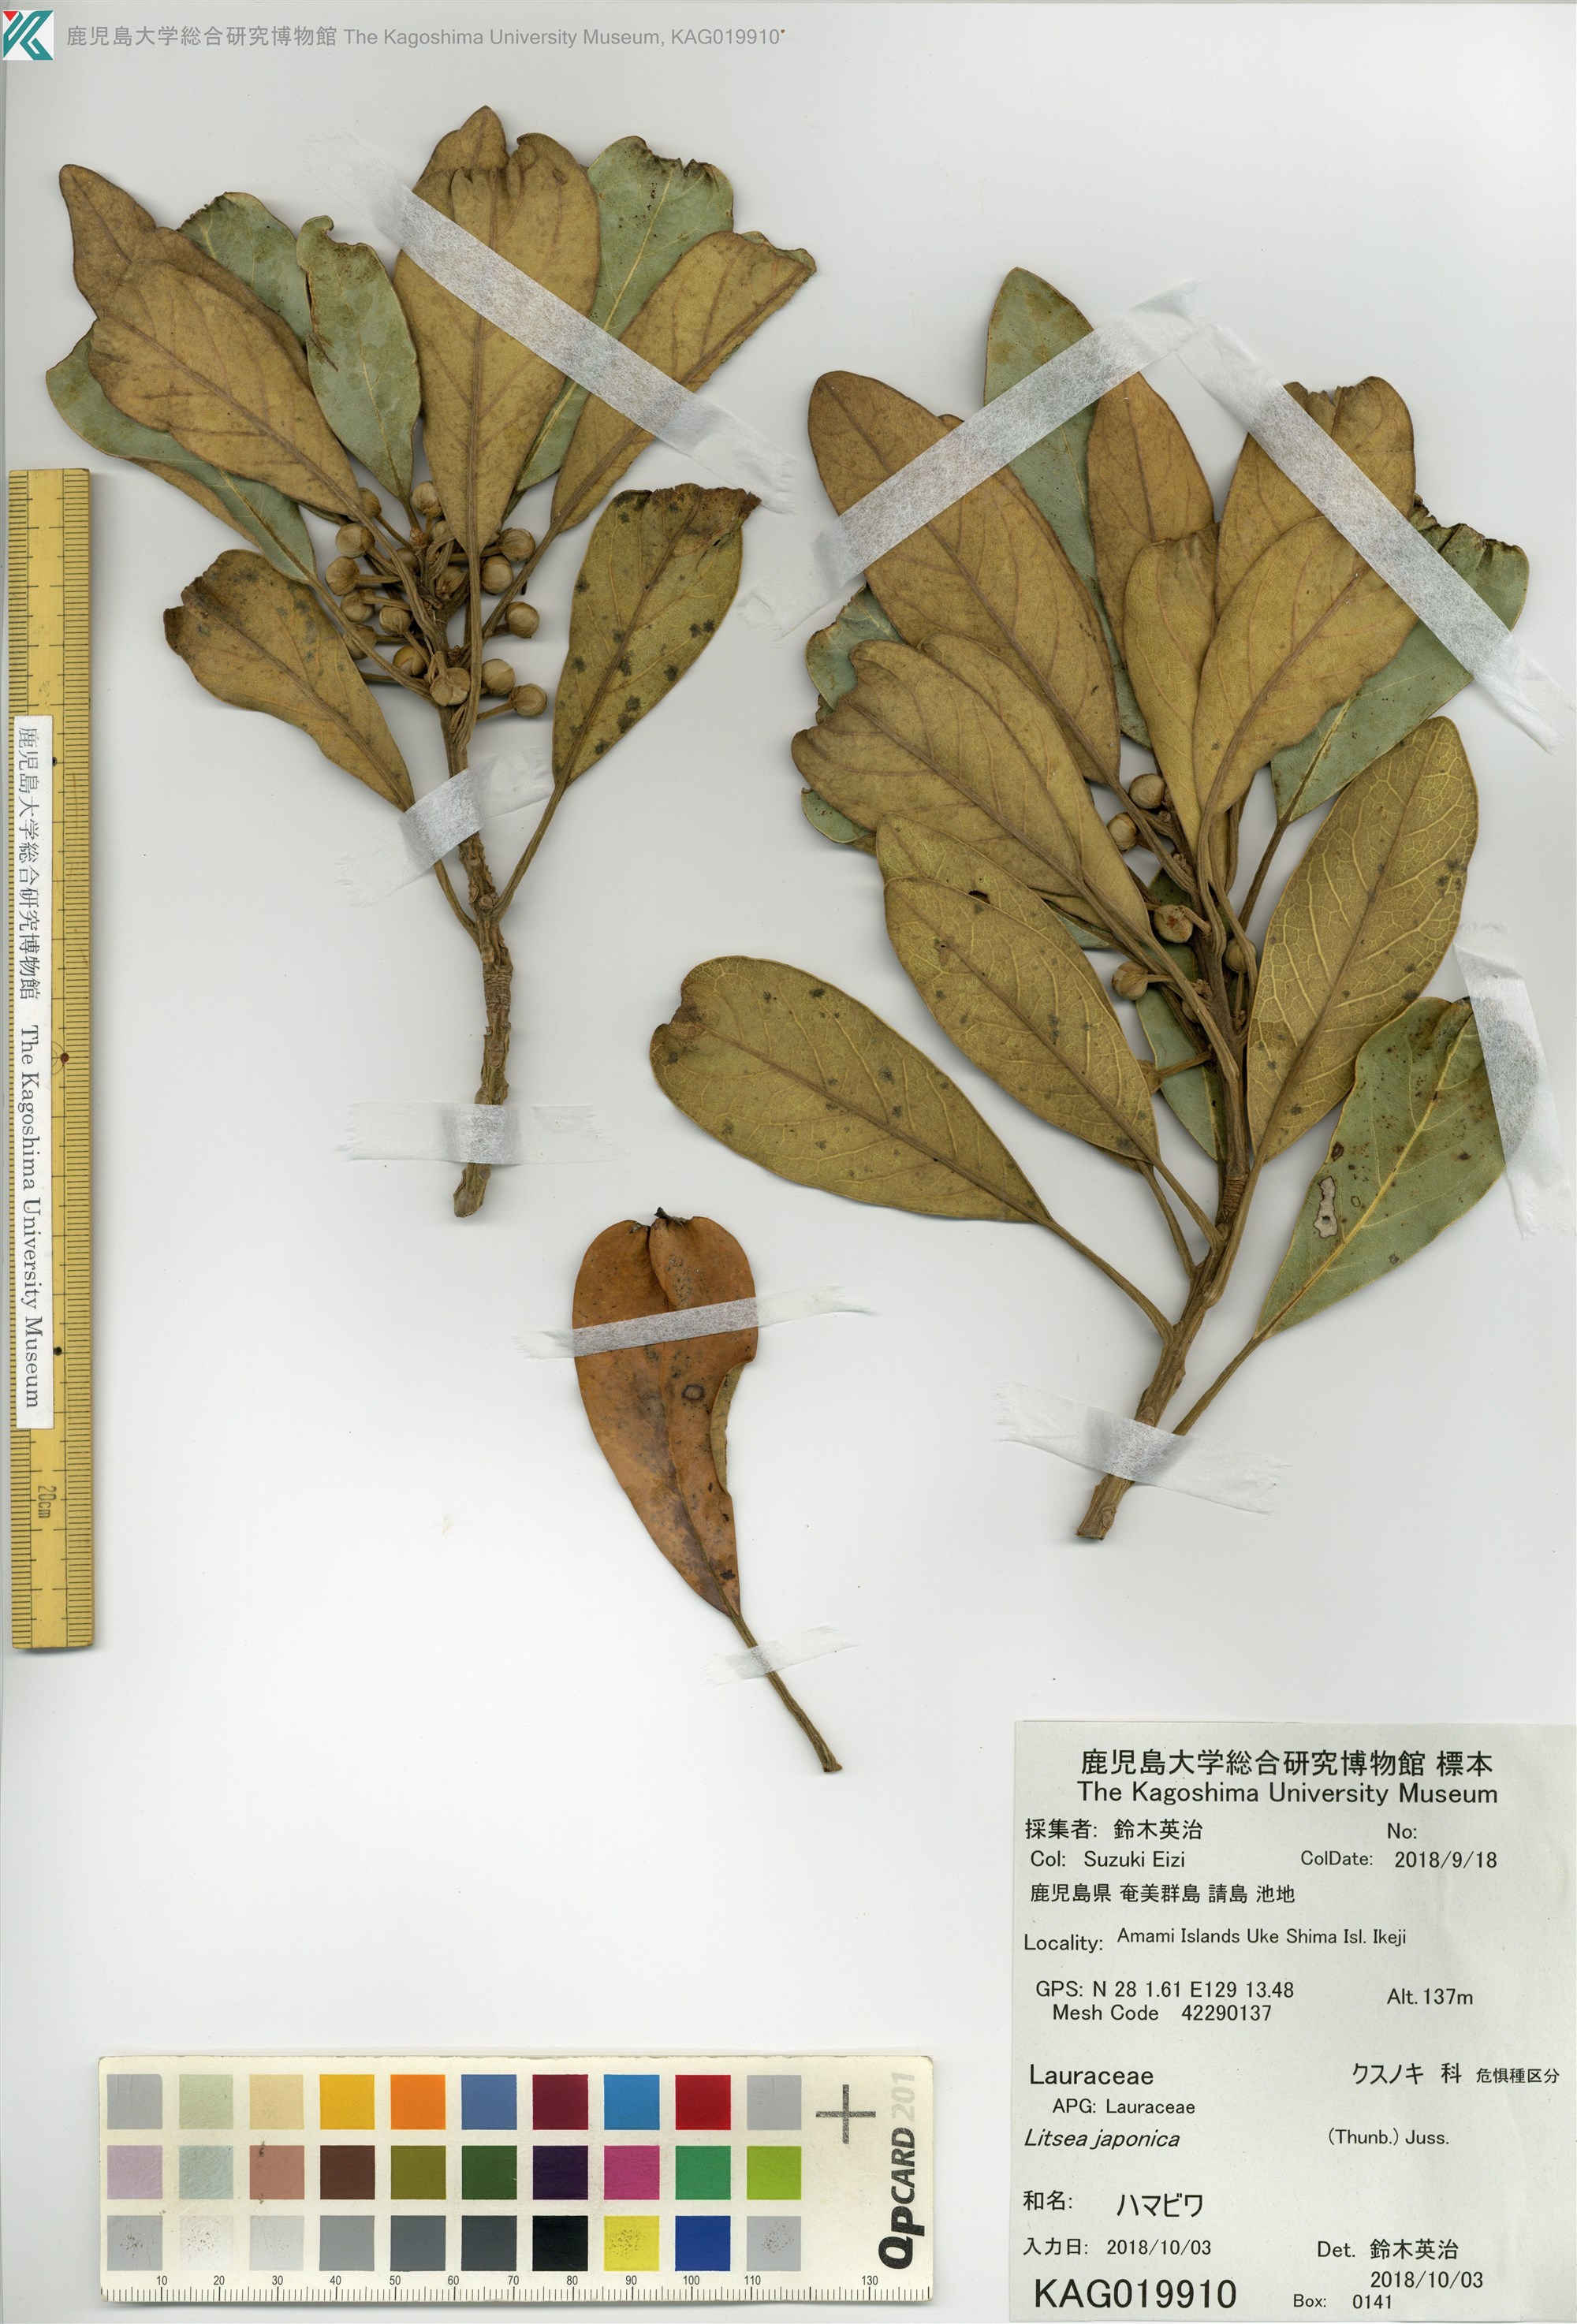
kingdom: Plantae
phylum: Tracheophyta
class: Magnoliopsida
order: Laurales
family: Lauraceae
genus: Litsea
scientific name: Litsea japonica
